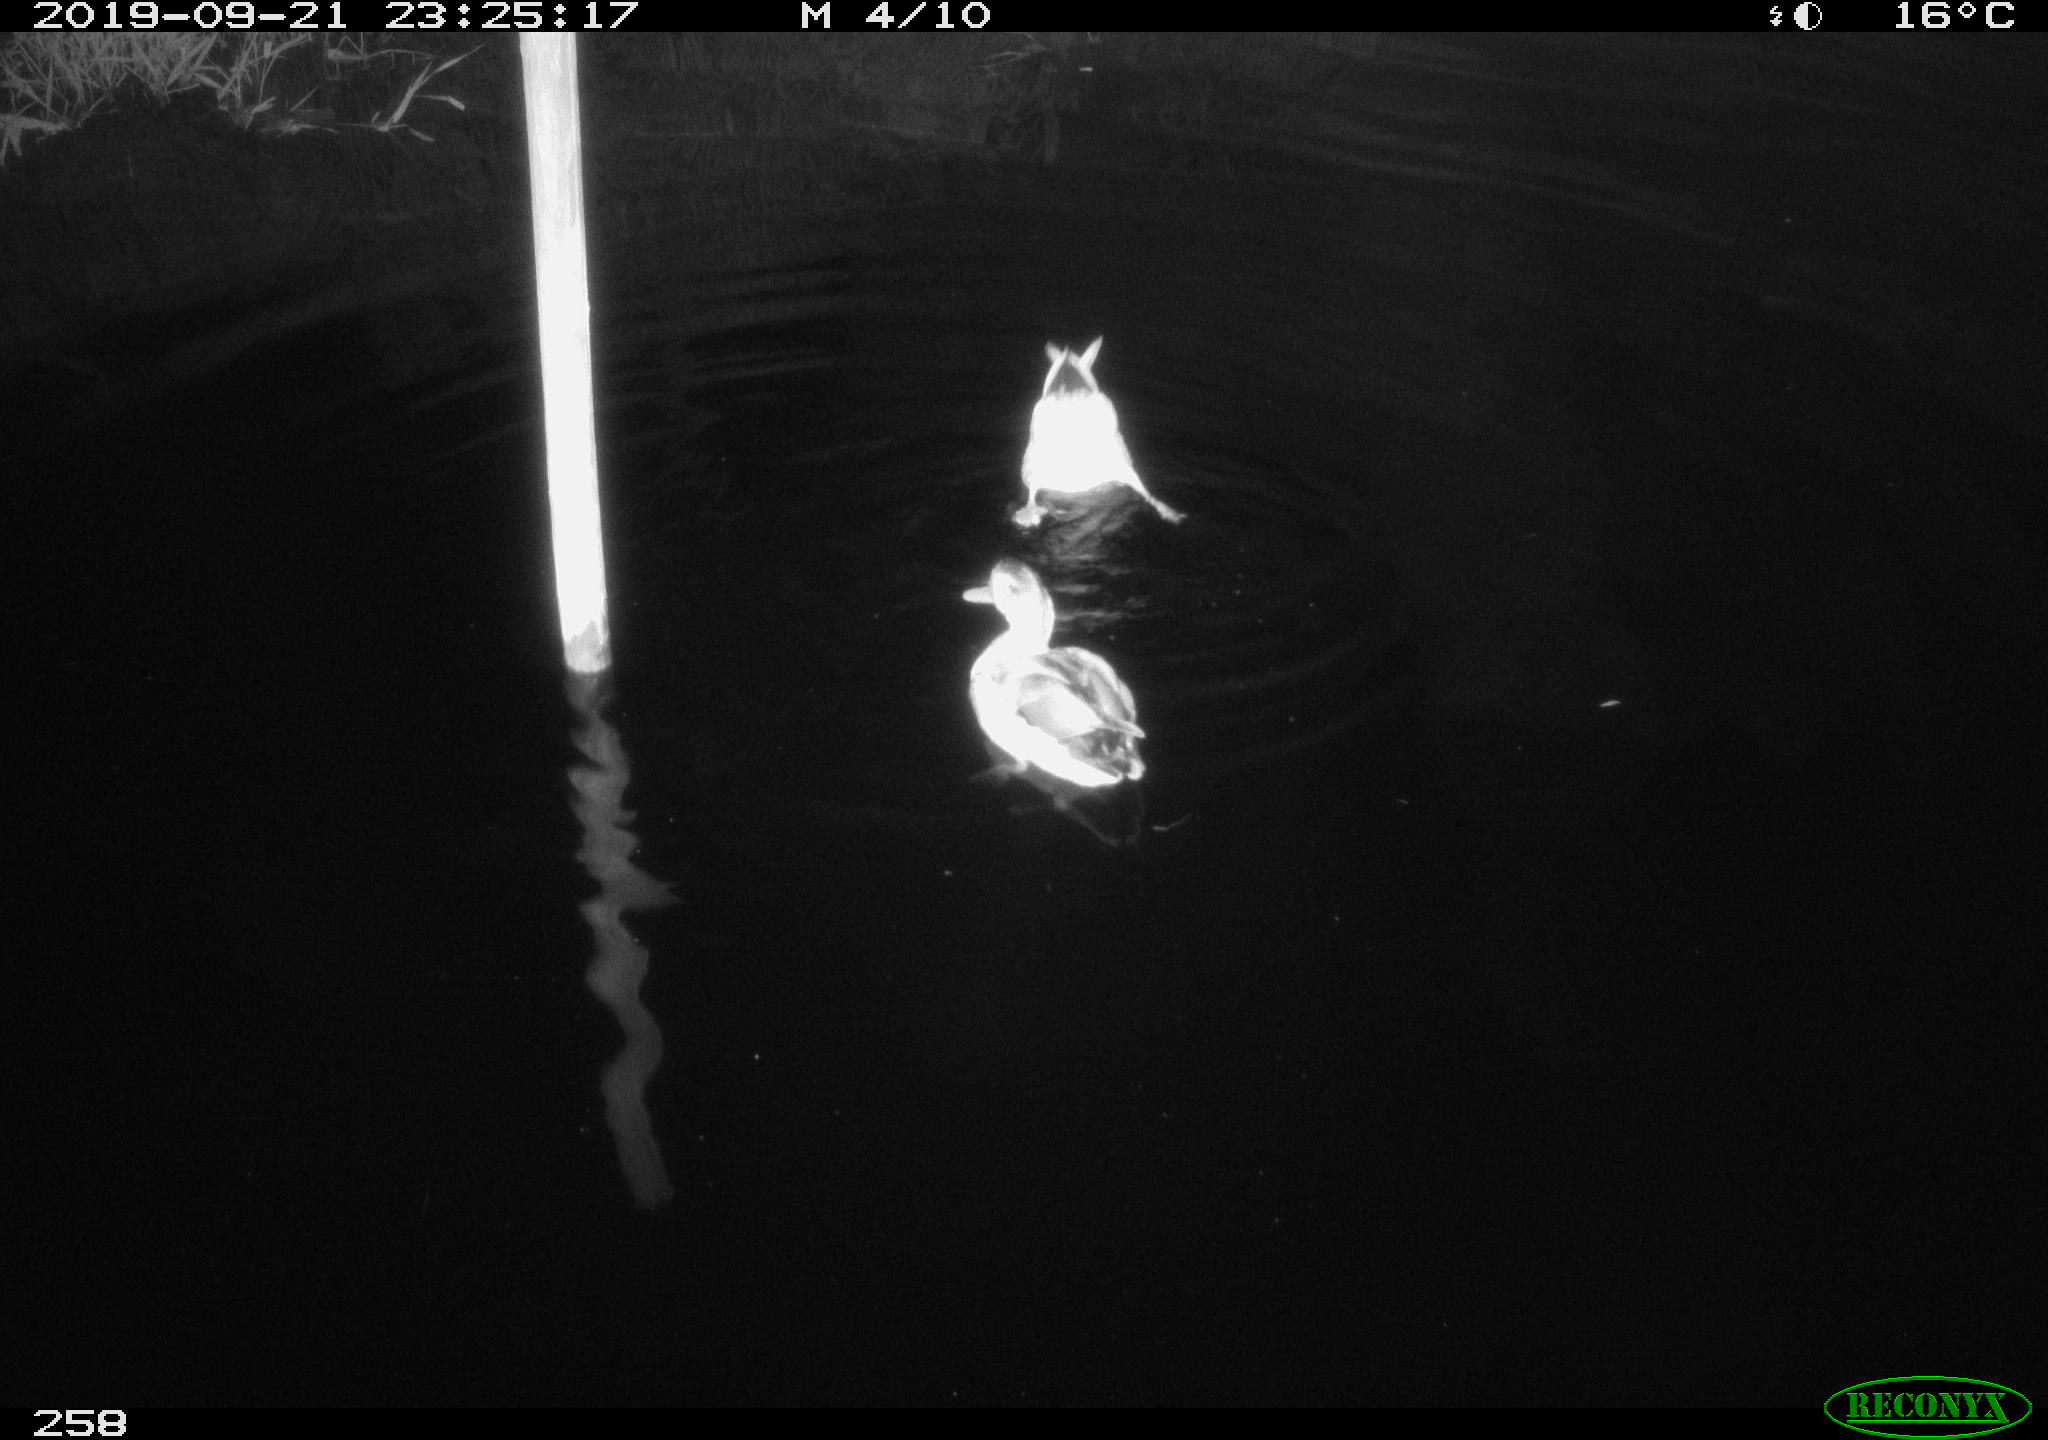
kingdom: Animalia
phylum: Chordata
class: Aves
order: Anseriformes
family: Anatidae
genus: Anas
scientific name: Anas platyrhynchos
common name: Mallard
